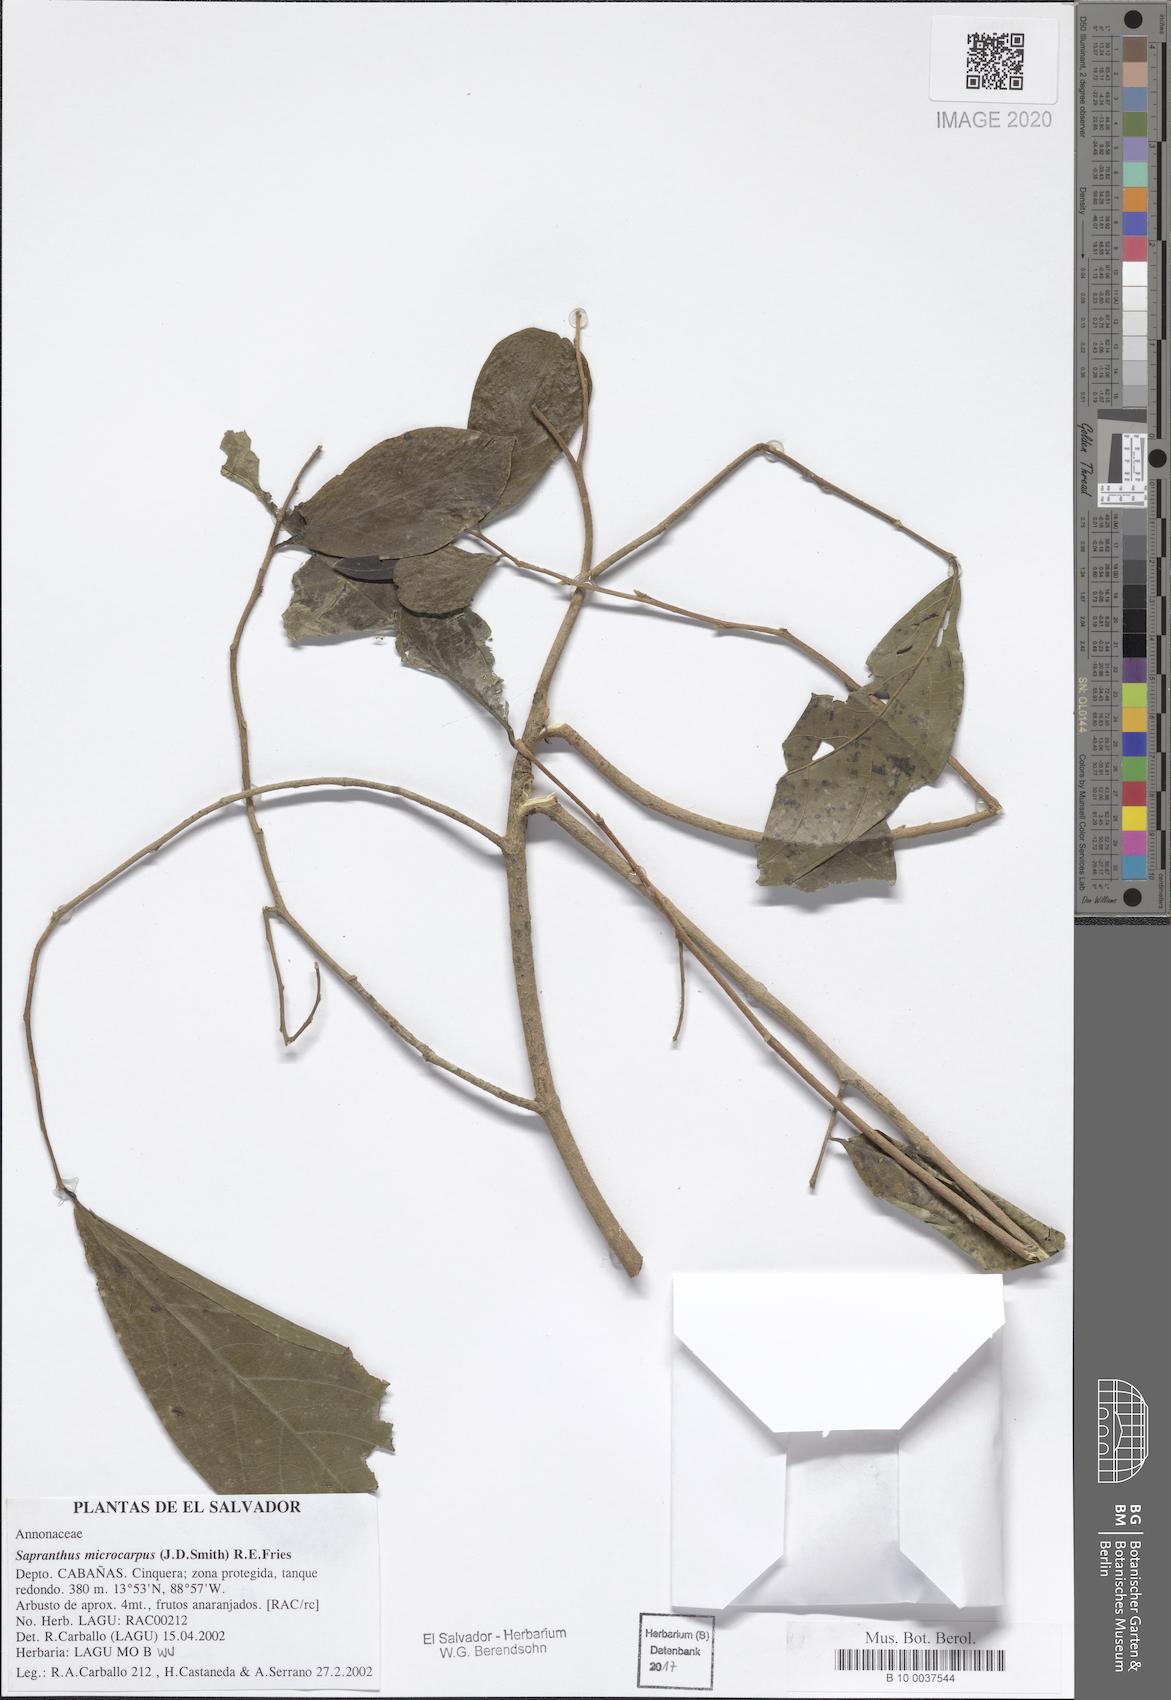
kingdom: Plantae
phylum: Tracheophyta
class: Magnoliopsida
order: Magnoliales
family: Annonaceae
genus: Sapranthus
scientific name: Sapranthus microcarpus
